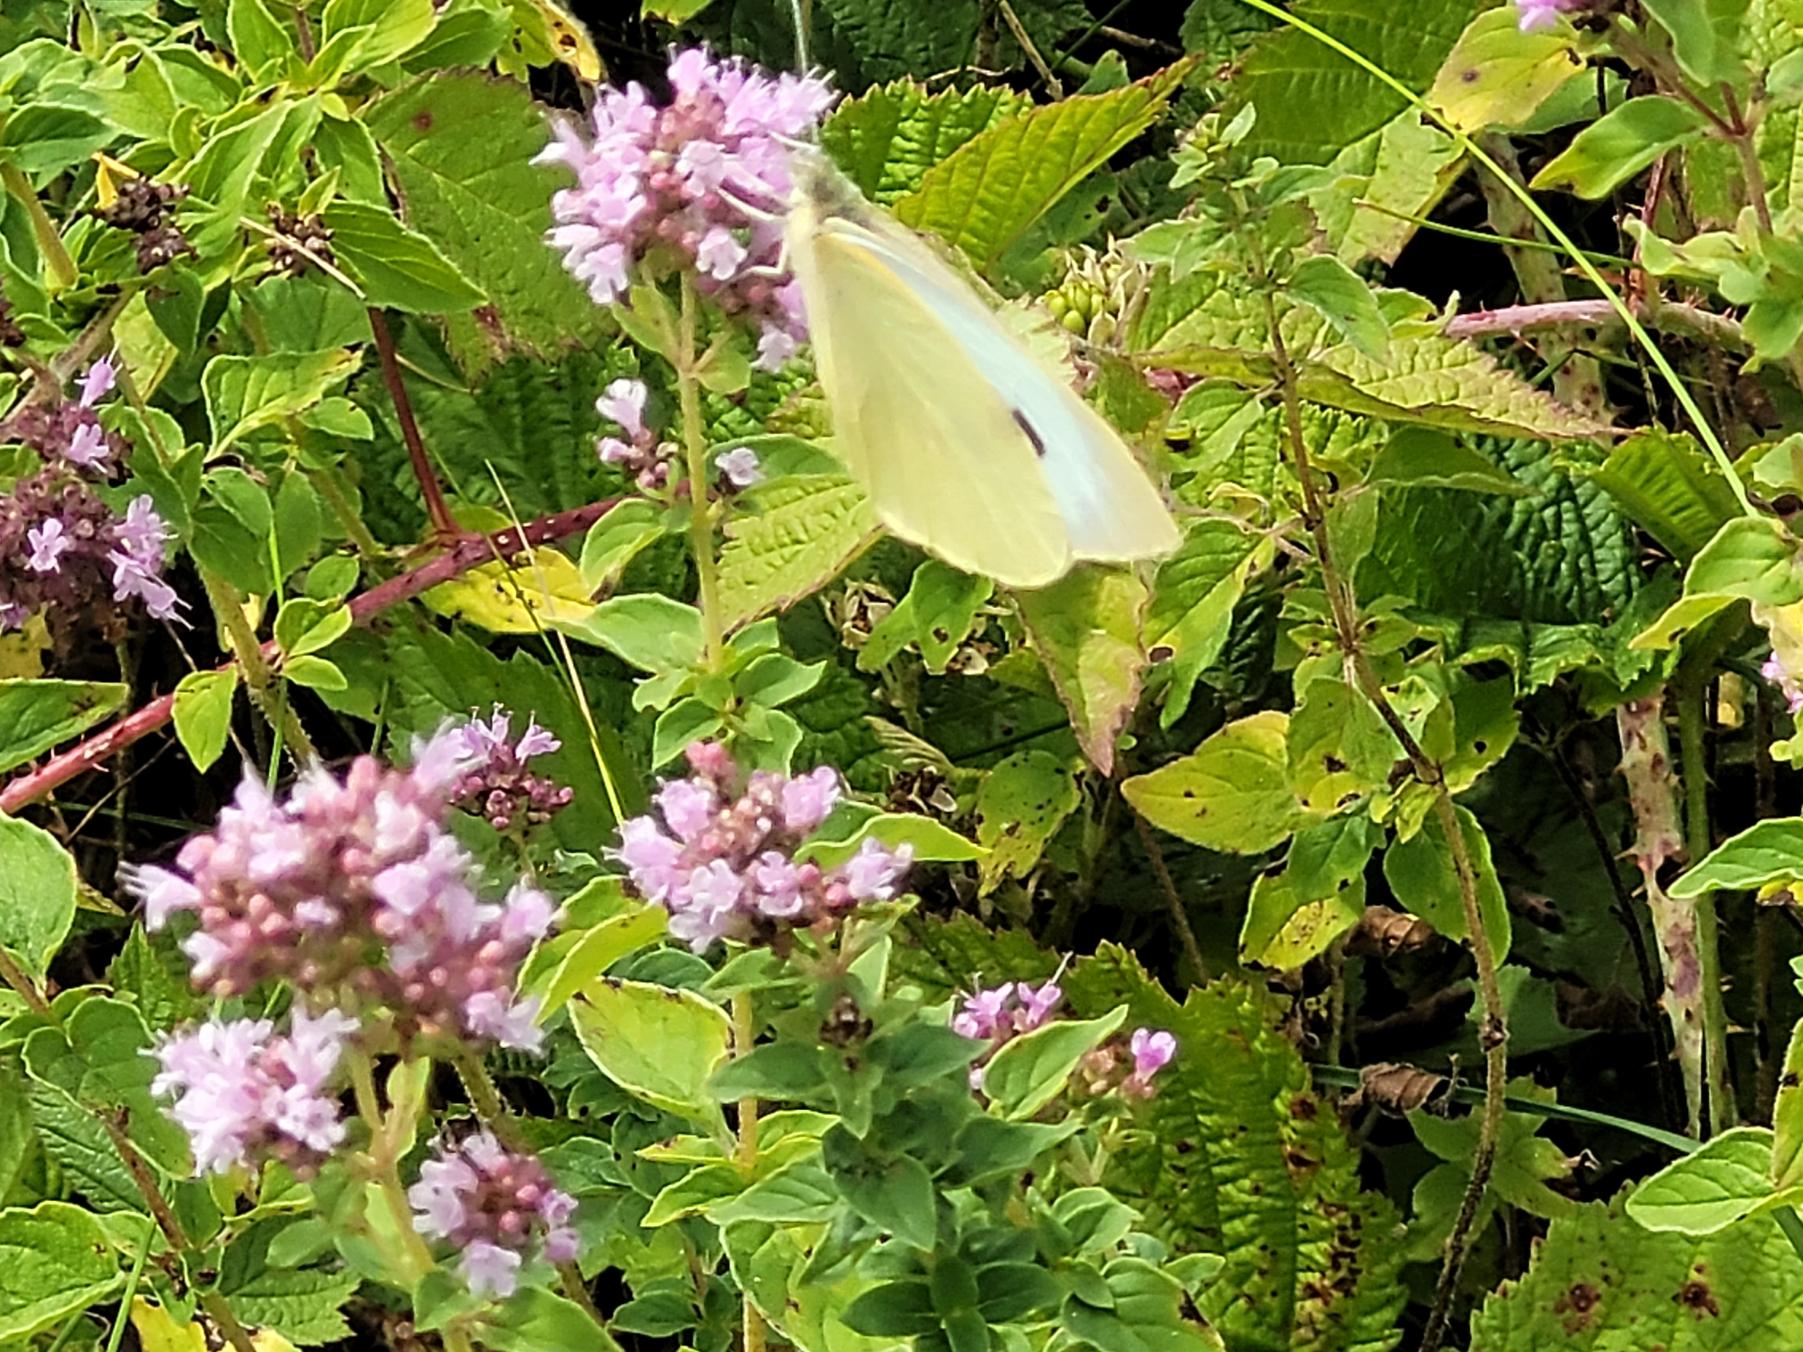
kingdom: Animalia
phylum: Arthropoda
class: Insecta
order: Lepidoptera
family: Pieridae
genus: Pieris
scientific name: Pieris brassicae
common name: Stor kålsommerfugl
